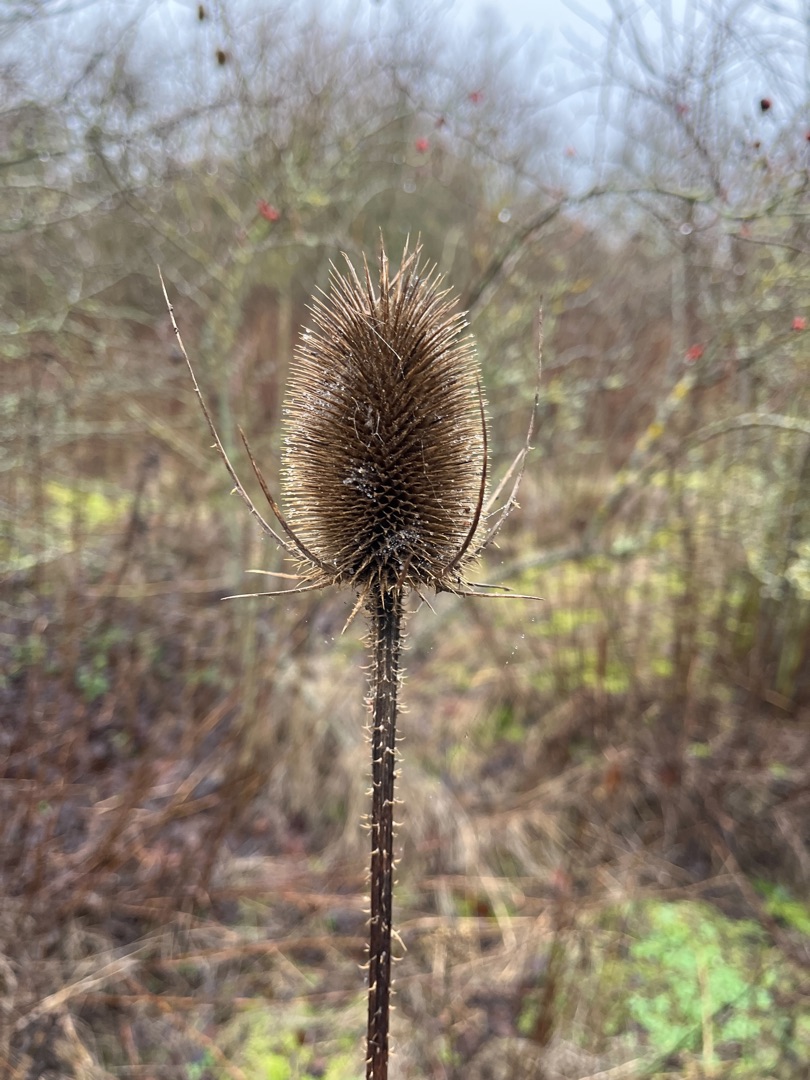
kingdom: Plantae
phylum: Tracheophyta
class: Magnoliopsida
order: Dipsacales
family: Caprifoliaceae
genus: Dipsacus
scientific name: Dipsacus fullonum
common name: Gærde-kartebolle
